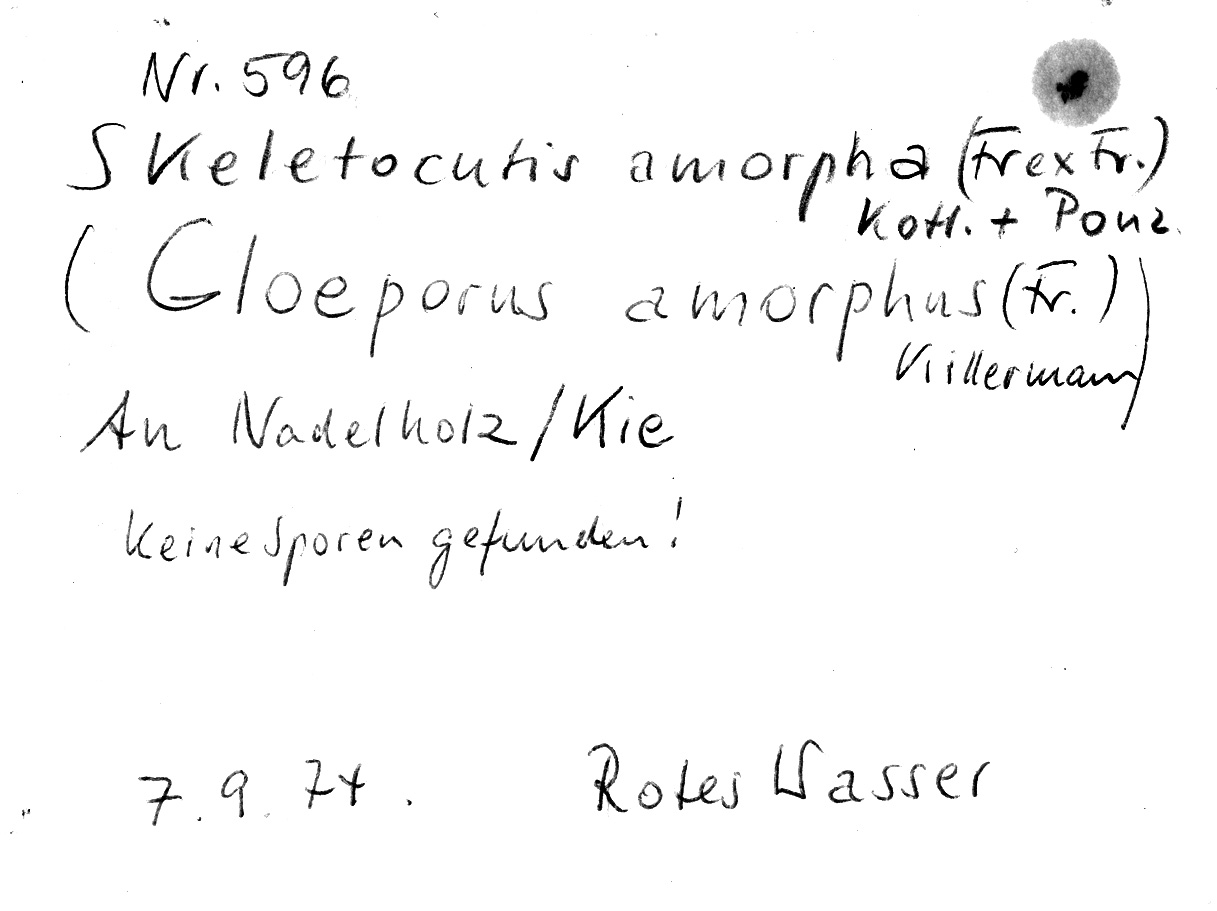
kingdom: Fungi
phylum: Basidiomycota
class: Agaricomycetes
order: Polyporales
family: Incrustoporiaceae
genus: Skeletocutis
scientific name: Skeletocutis amorpha
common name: Rusty crust
